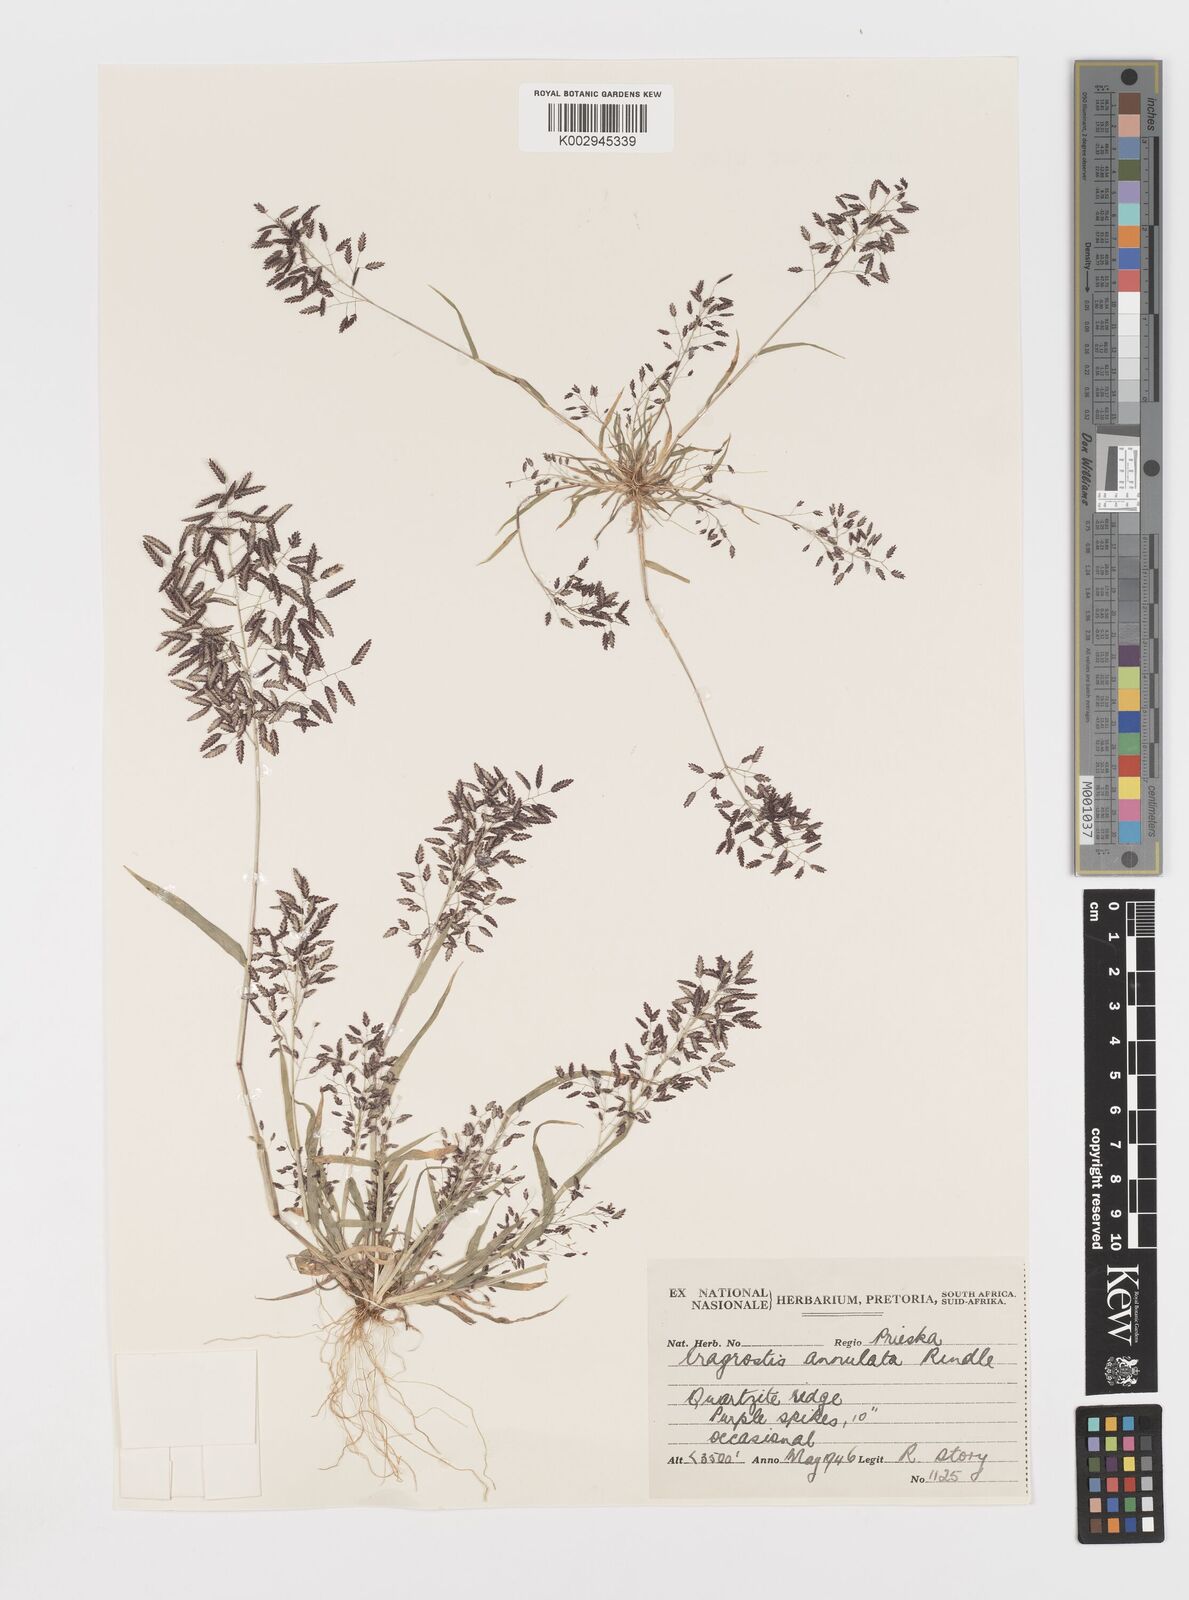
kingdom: Plantae
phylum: Tracheophyta
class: Liliopsida
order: Poales
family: Poaceae
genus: Eragrostis
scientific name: Eragrostis annulata
